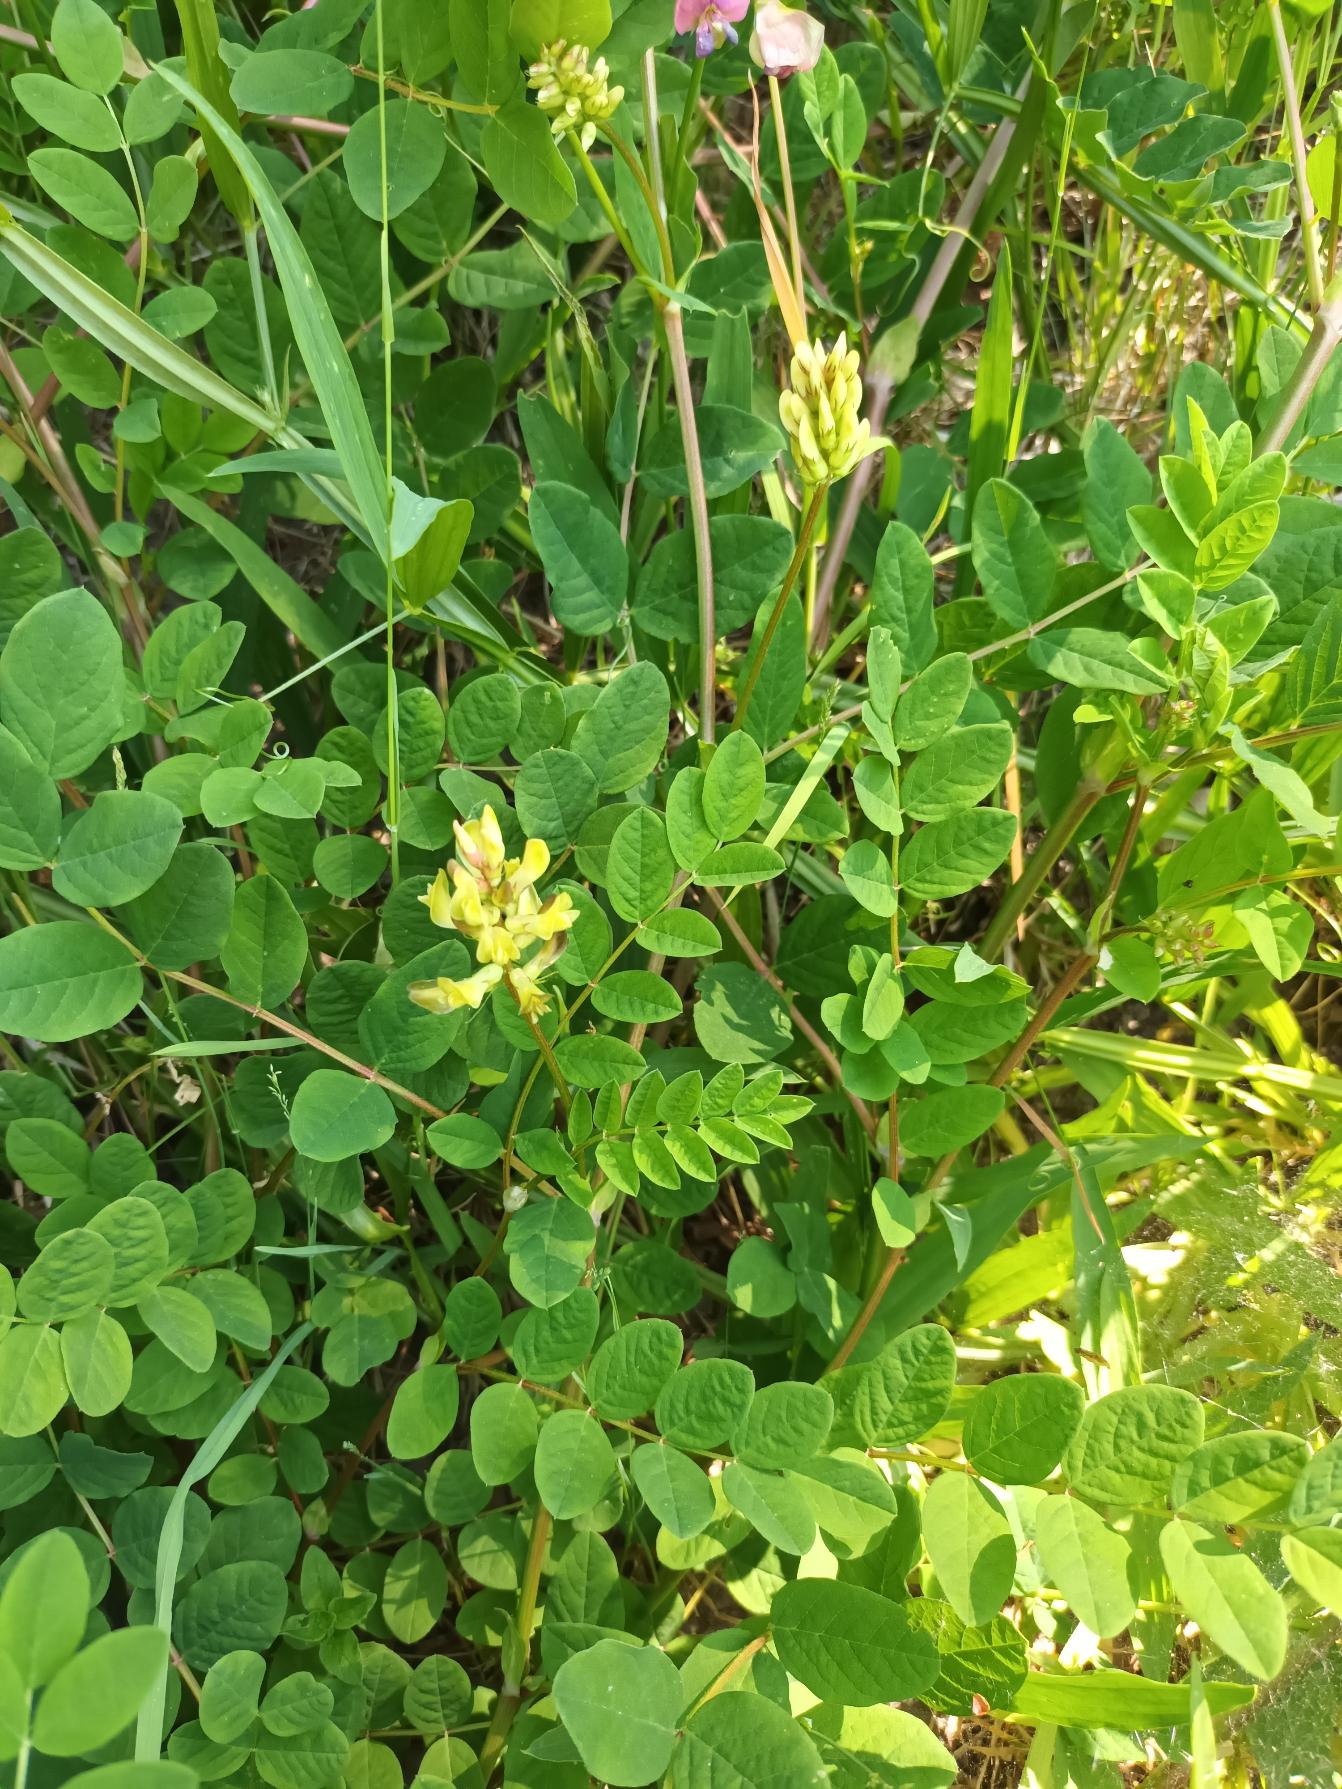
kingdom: Plantae
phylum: Tracheophyta
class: Magnoliopsida
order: Fabales
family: Fabaceae
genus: Astragalus
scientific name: Astragalus glycyphyllos
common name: Sød astragel
